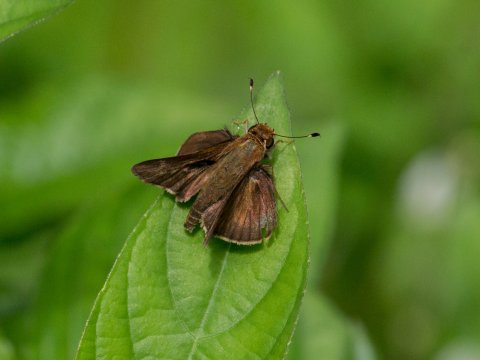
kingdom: Animalia
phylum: Arthropoda
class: Insecta
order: Lepidoptera
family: Hesperiidae
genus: Pompeius
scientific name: Pompeius pompeius
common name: Pompeius Skipper
